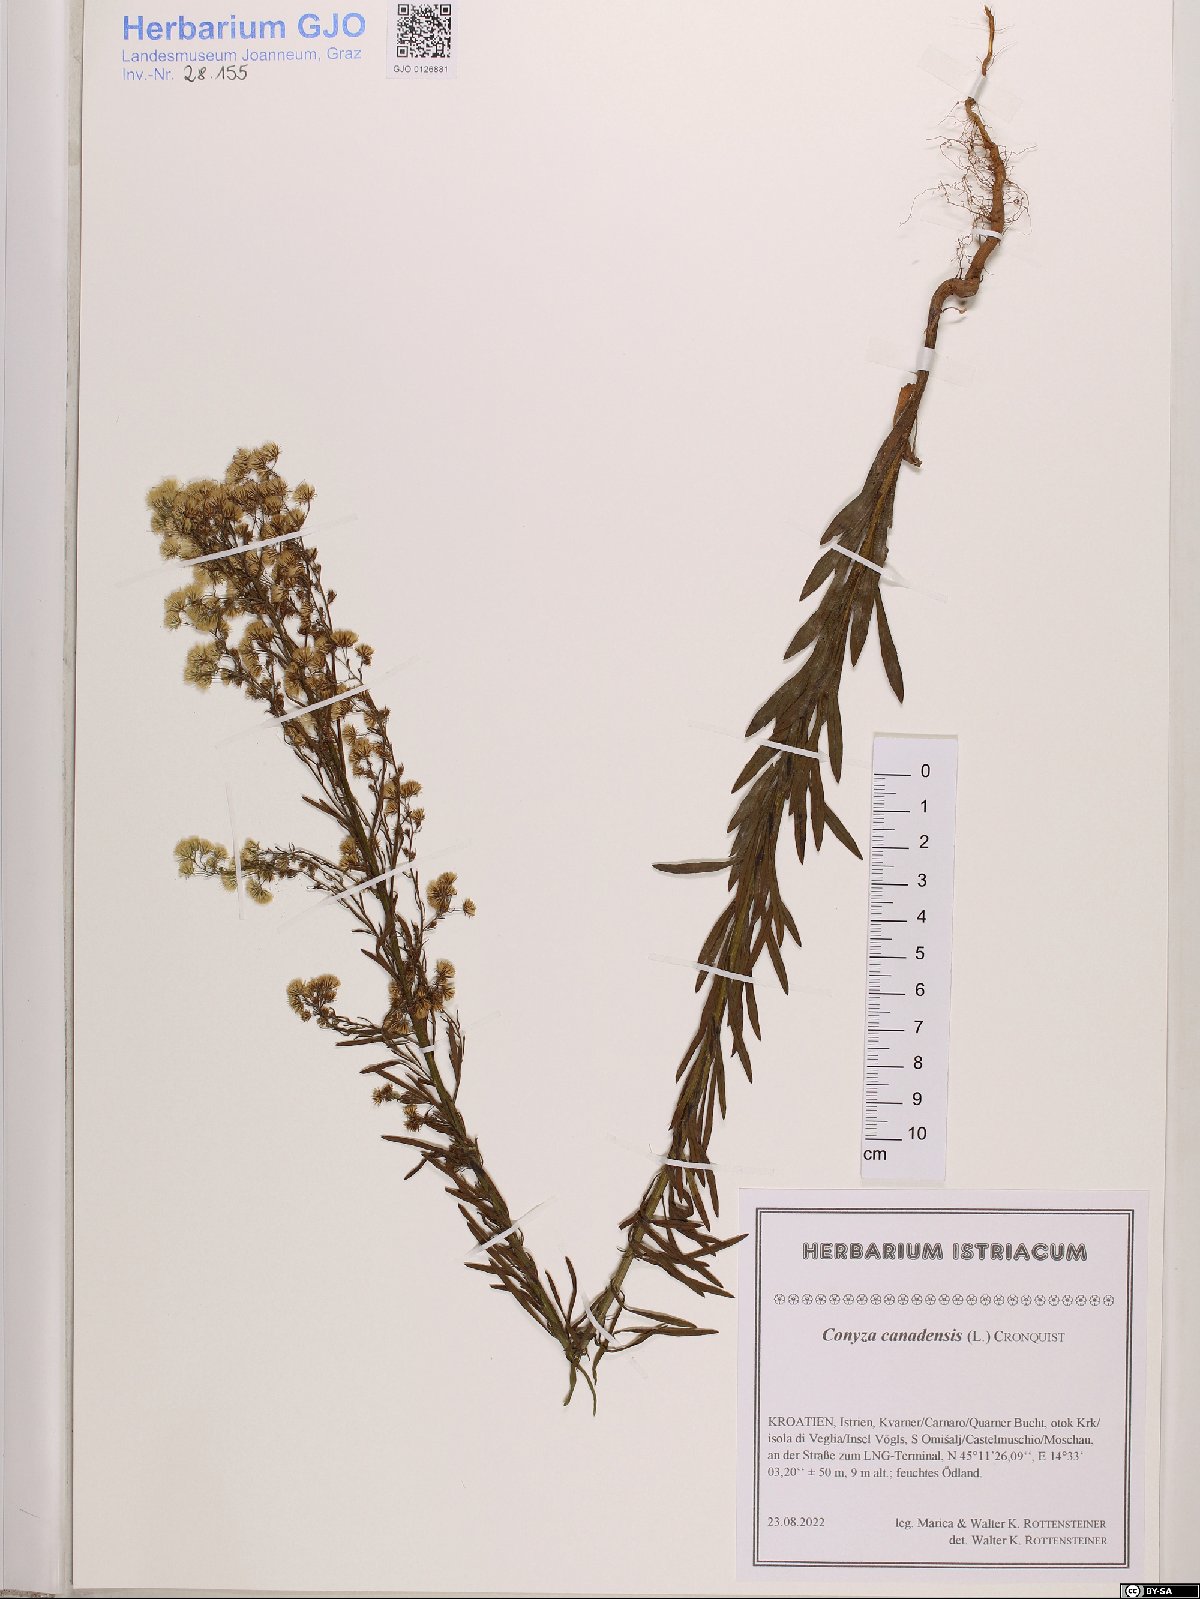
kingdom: Plantae
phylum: Tracheophyta
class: Magnoliopsida
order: Asterales
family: Asteraceae
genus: Erigeron
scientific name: Erigeron canadensis
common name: Canadian fleabane
